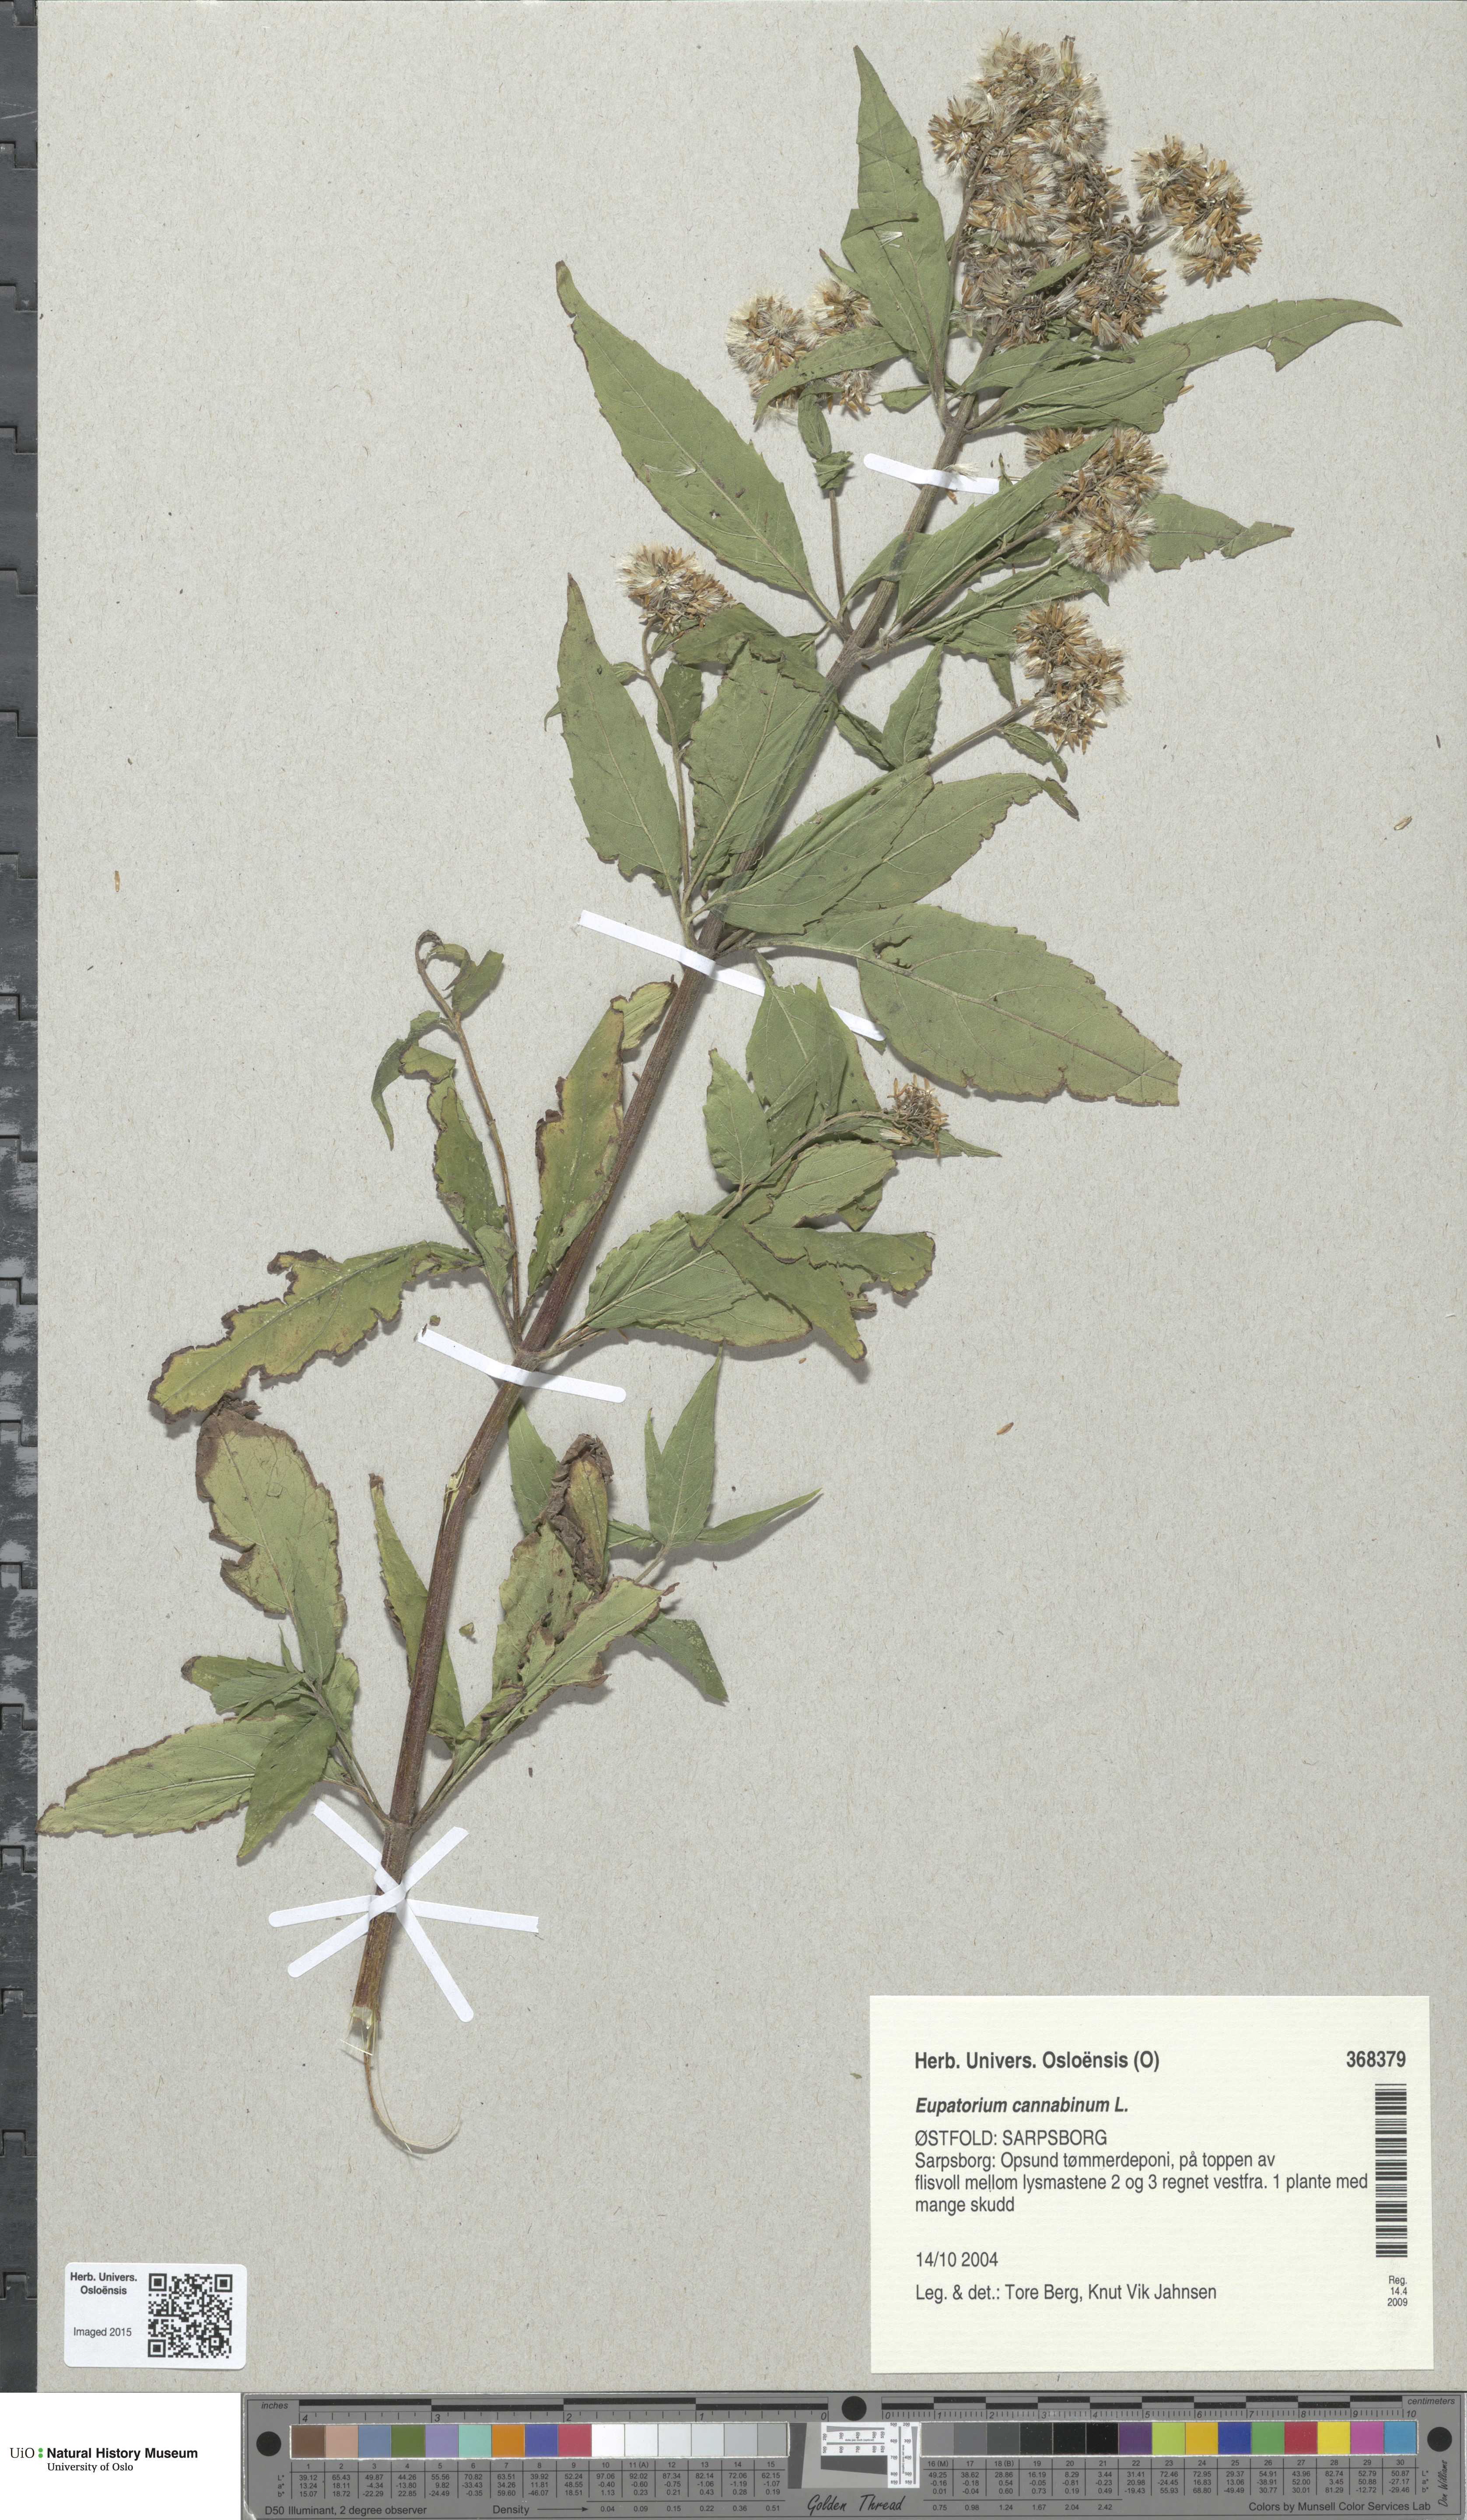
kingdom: Plantae
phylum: Tracheophyta
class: Magnoliopsida
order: Asterales
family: Asteraceae
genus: Eupatorium
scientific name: Eupatorium cannabinum
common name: Hemp-agrimony
